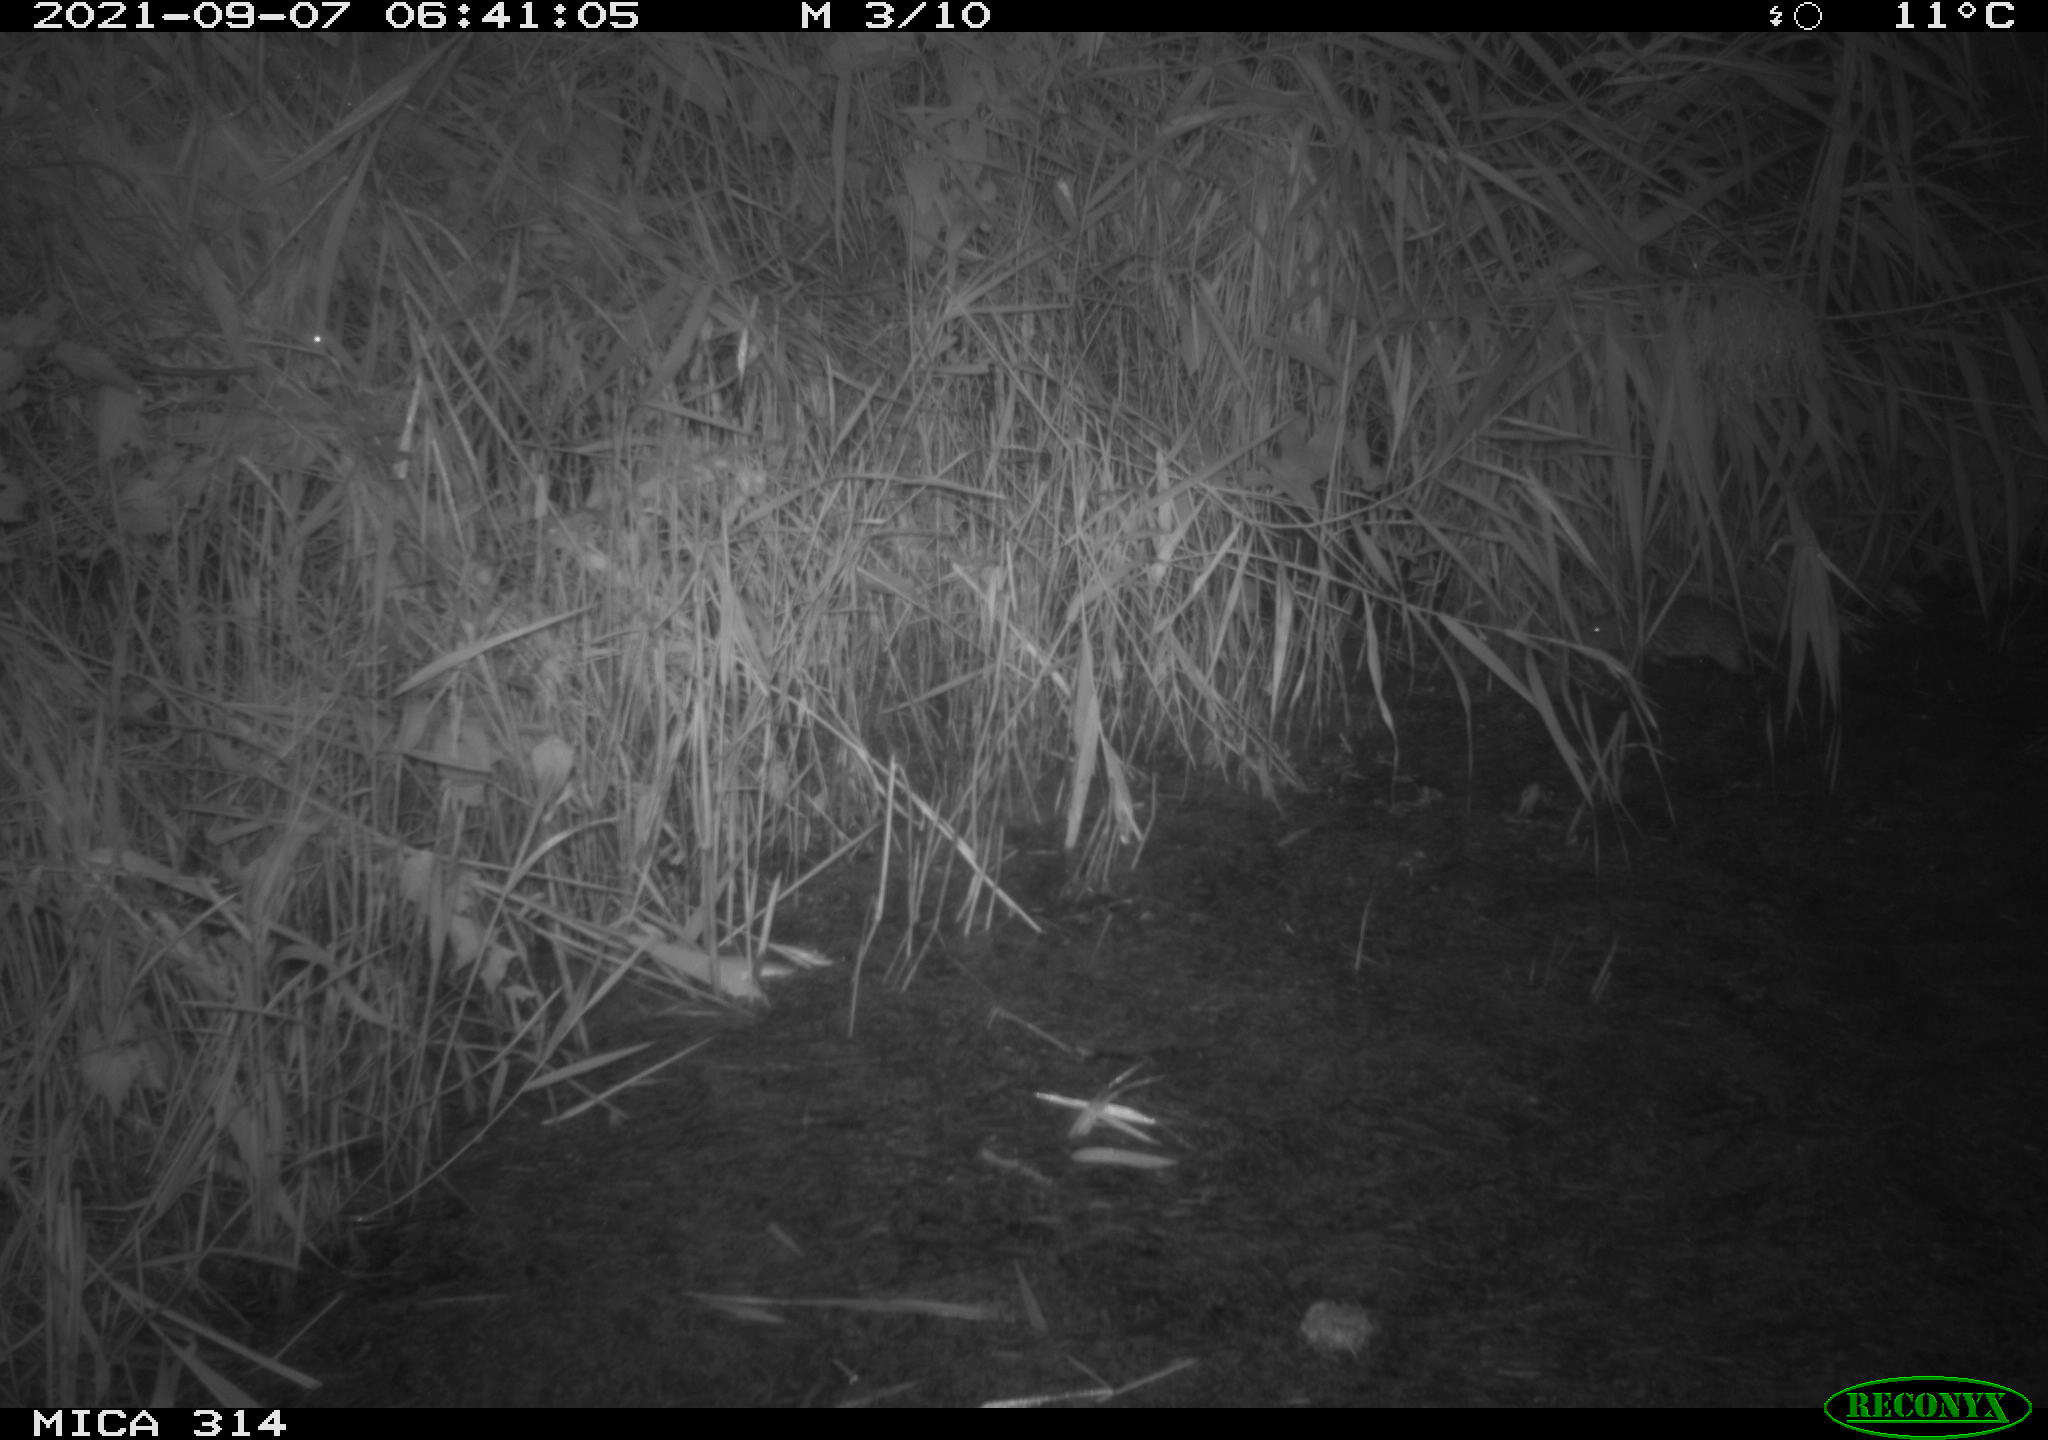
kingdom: Animalia
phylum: Chordata
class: Mammalia
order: Rodentia
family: Muridae
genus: Rattus
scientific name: Rattus norvegicus
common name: Brown rat
